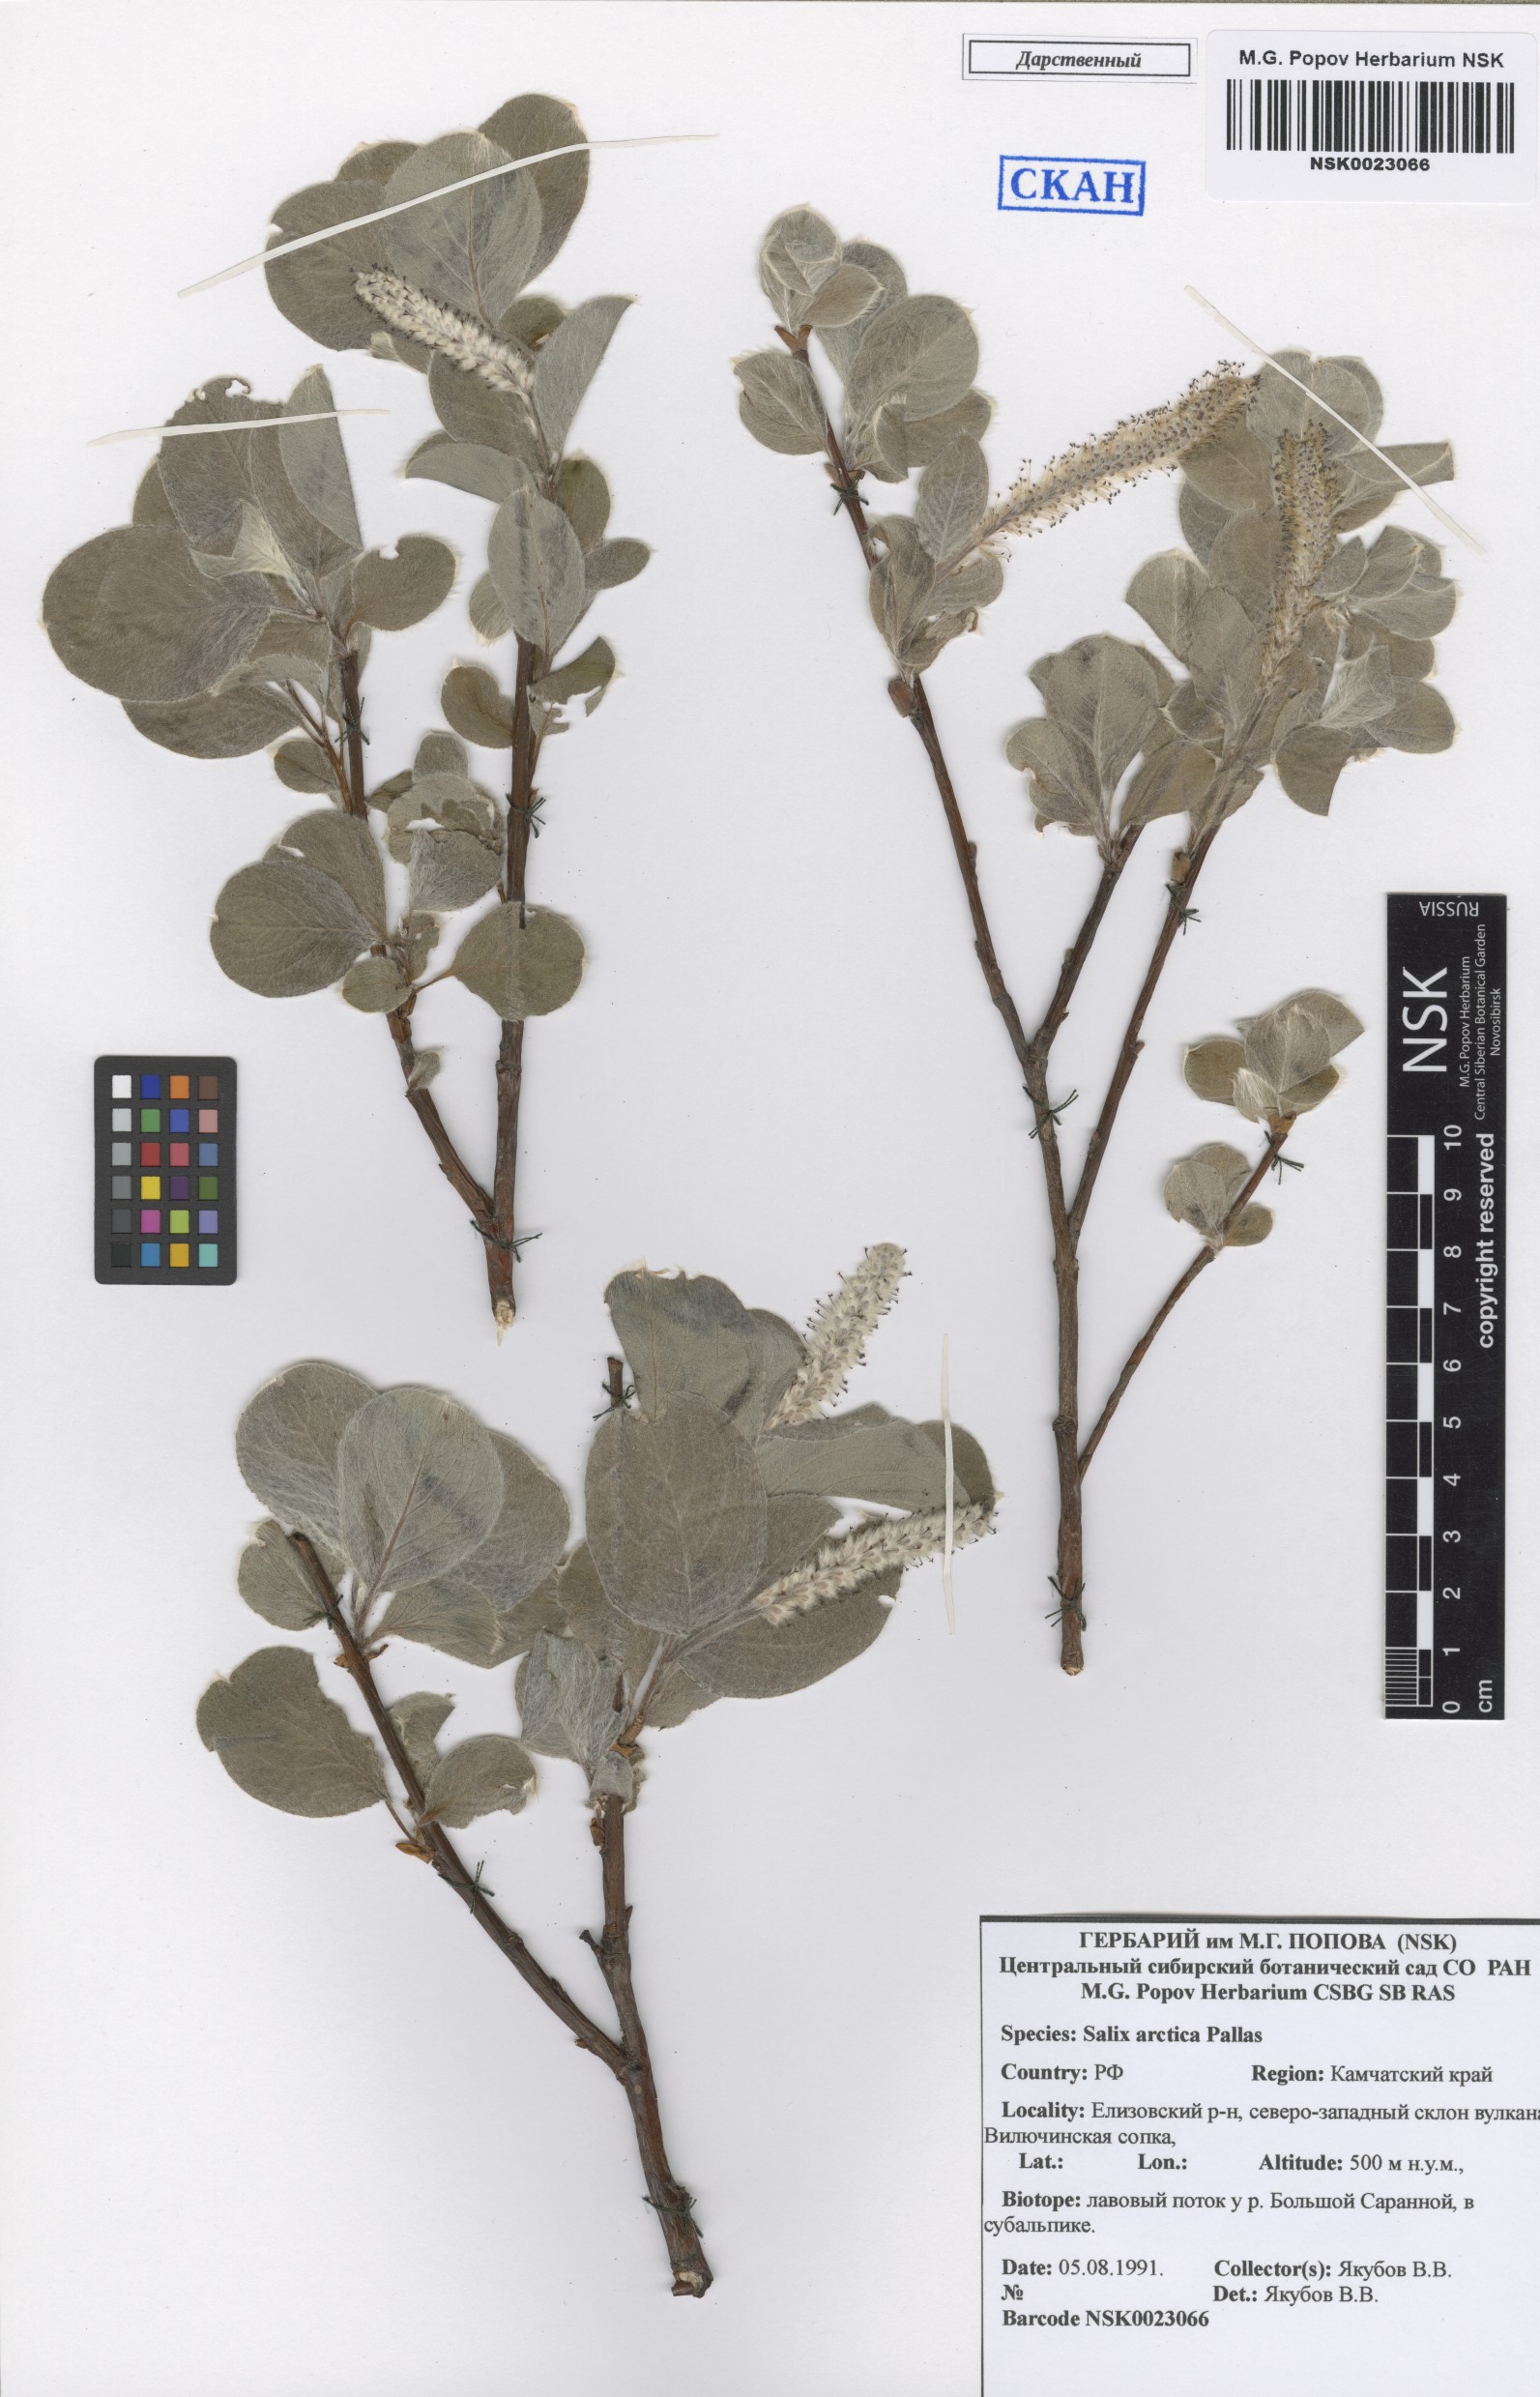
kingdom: Plantae
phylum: Tracheophyta
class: Magnoliopsida
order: Malpighiales
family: Salicaceae
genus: Salix
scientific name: Salix arctica
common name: Arctic willow
